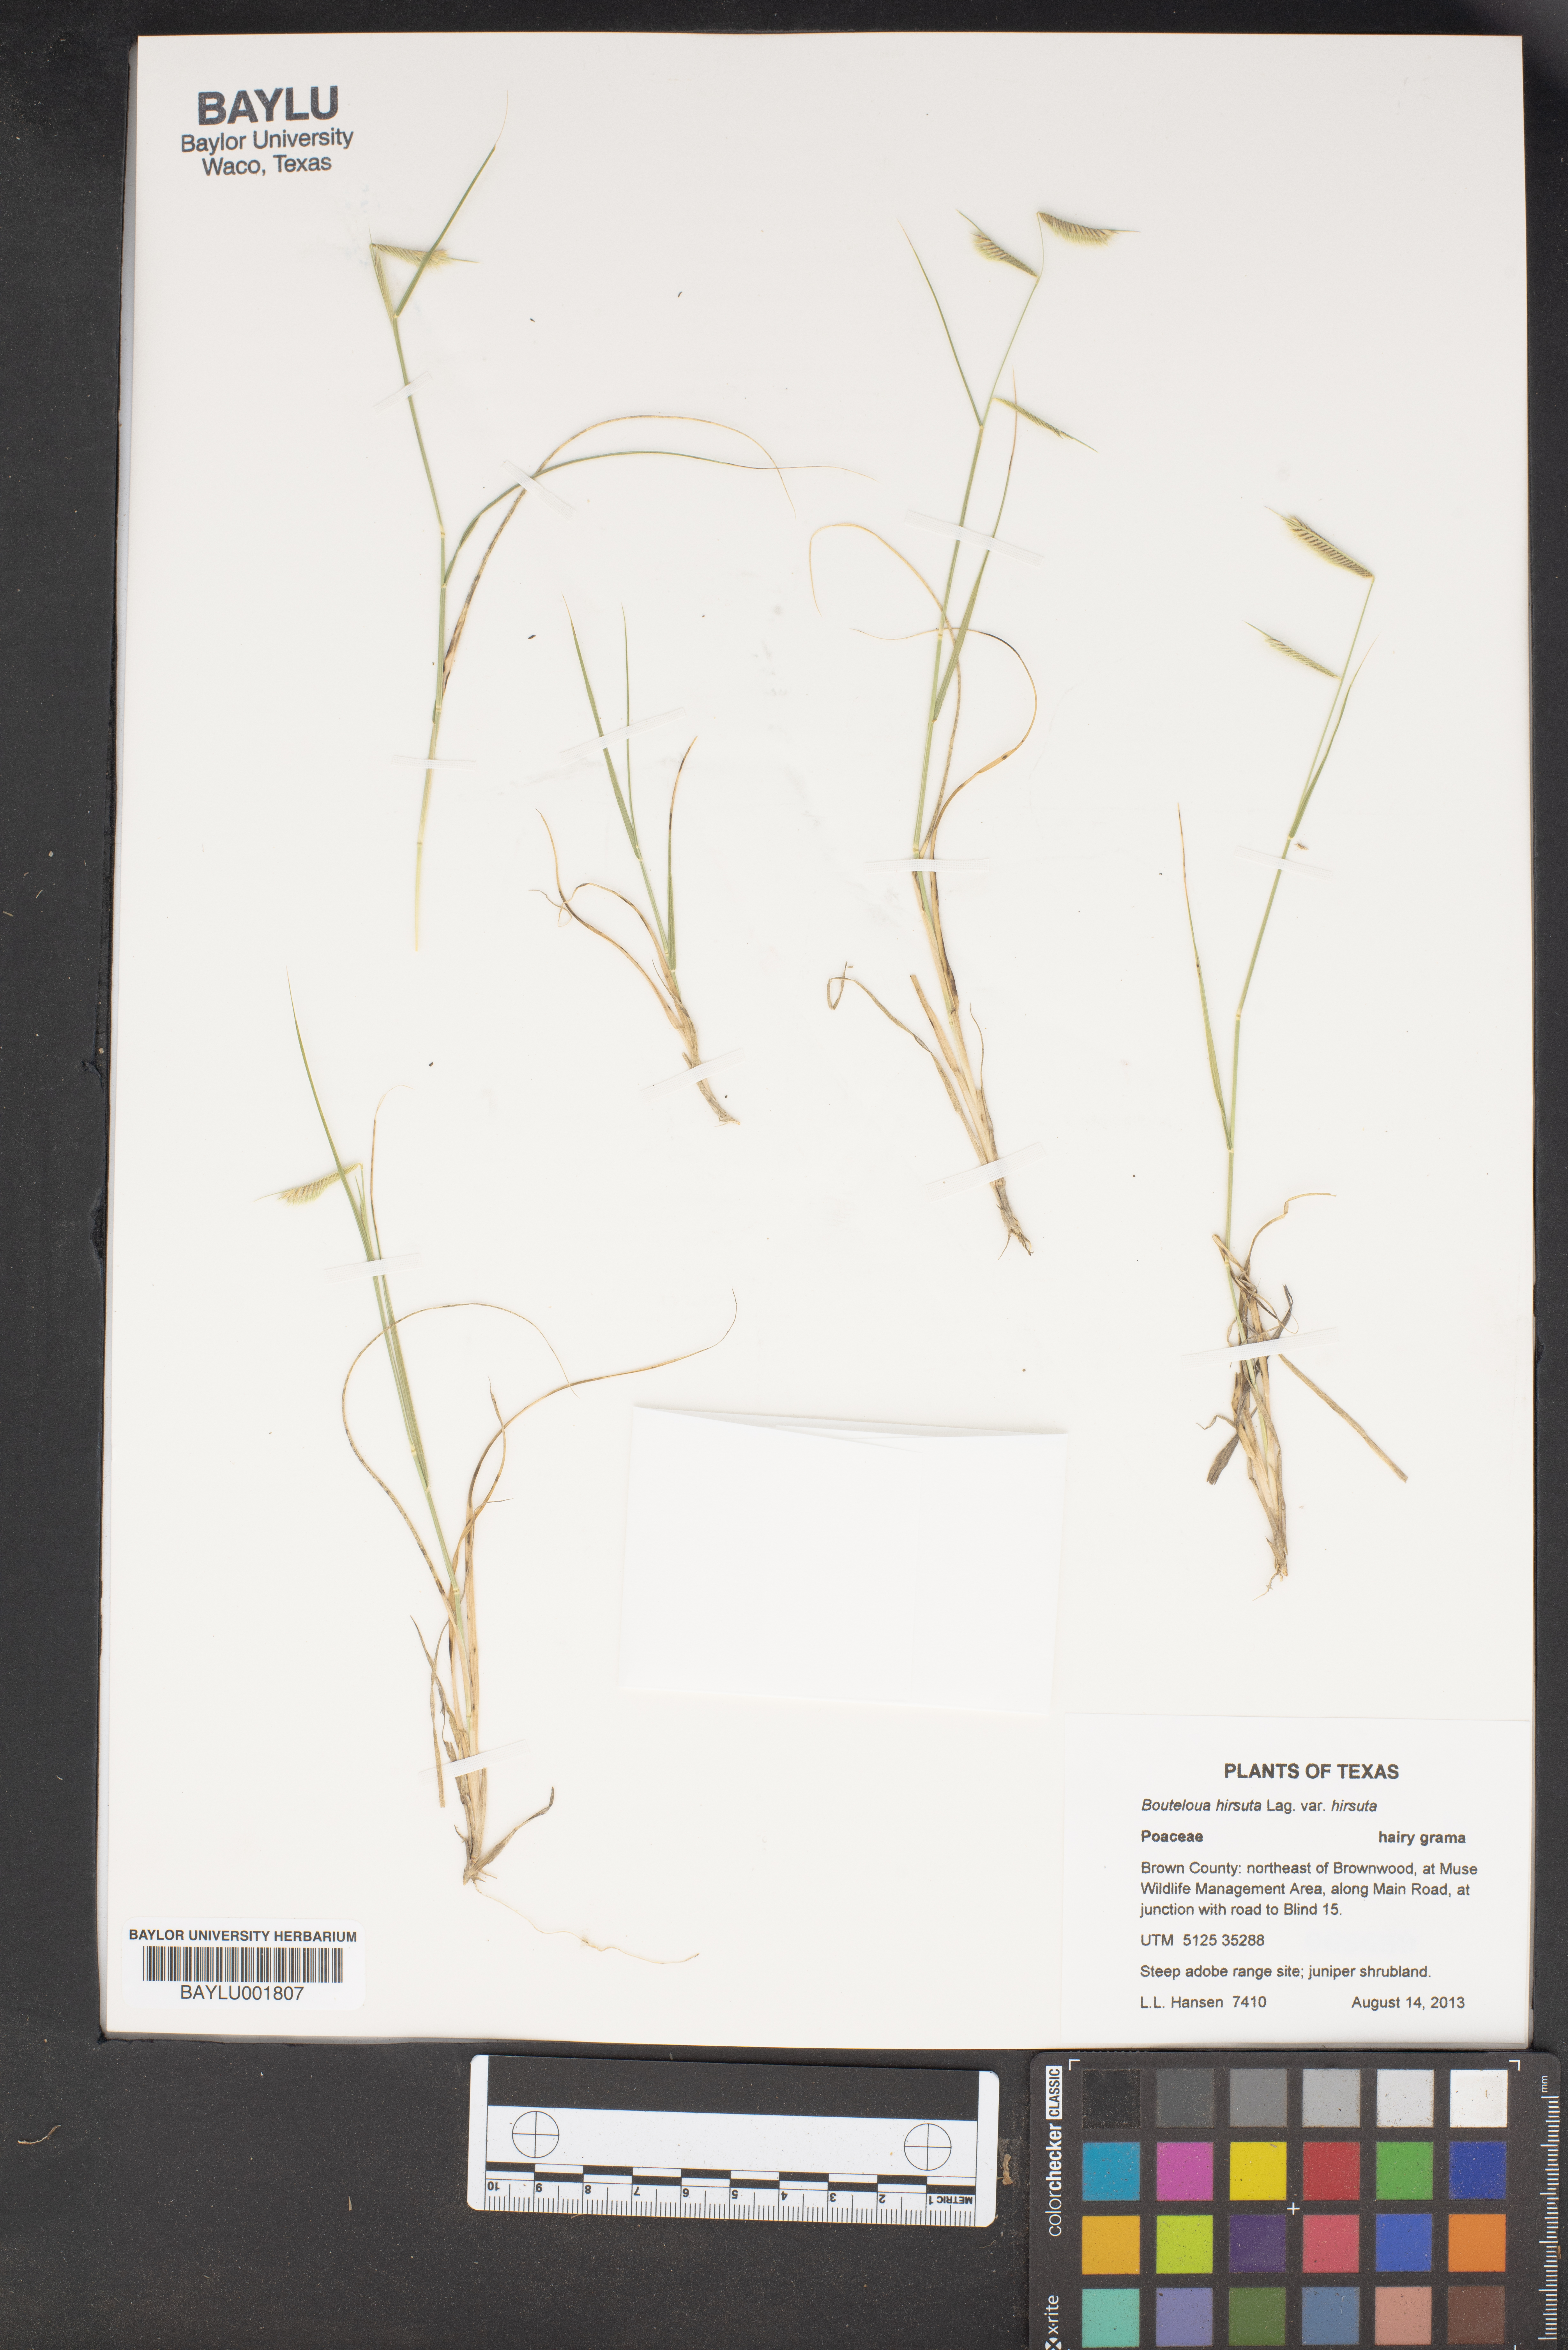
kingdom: Plantae
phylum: Tracheophyta
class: Liliopsida
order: Poales
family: Poaceae
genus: Bouteloua
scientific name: Bouteloua hirsuta
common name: Hairy grama
